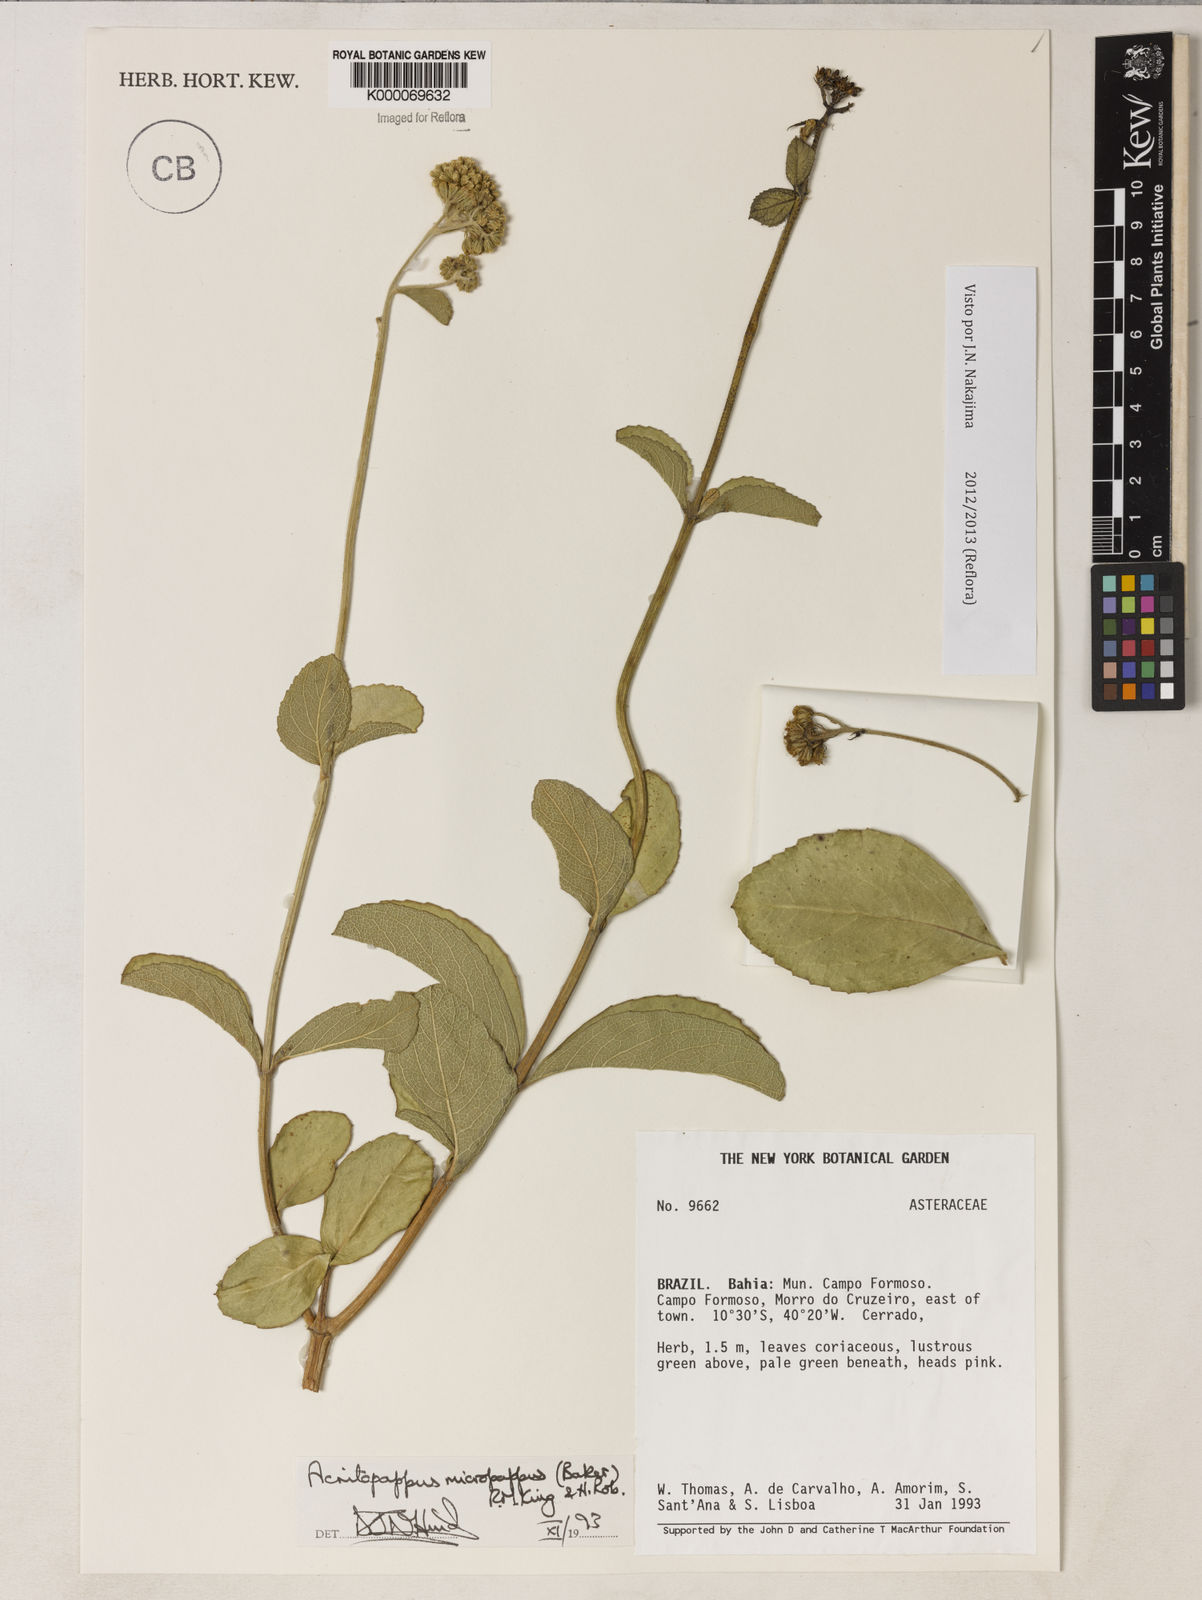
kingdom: Plantae
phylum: Tracheophyta
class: Magnoliopsida
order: Asterales
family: Asteraceae
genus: Acritopappus
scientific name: Acritopappus micropappus
